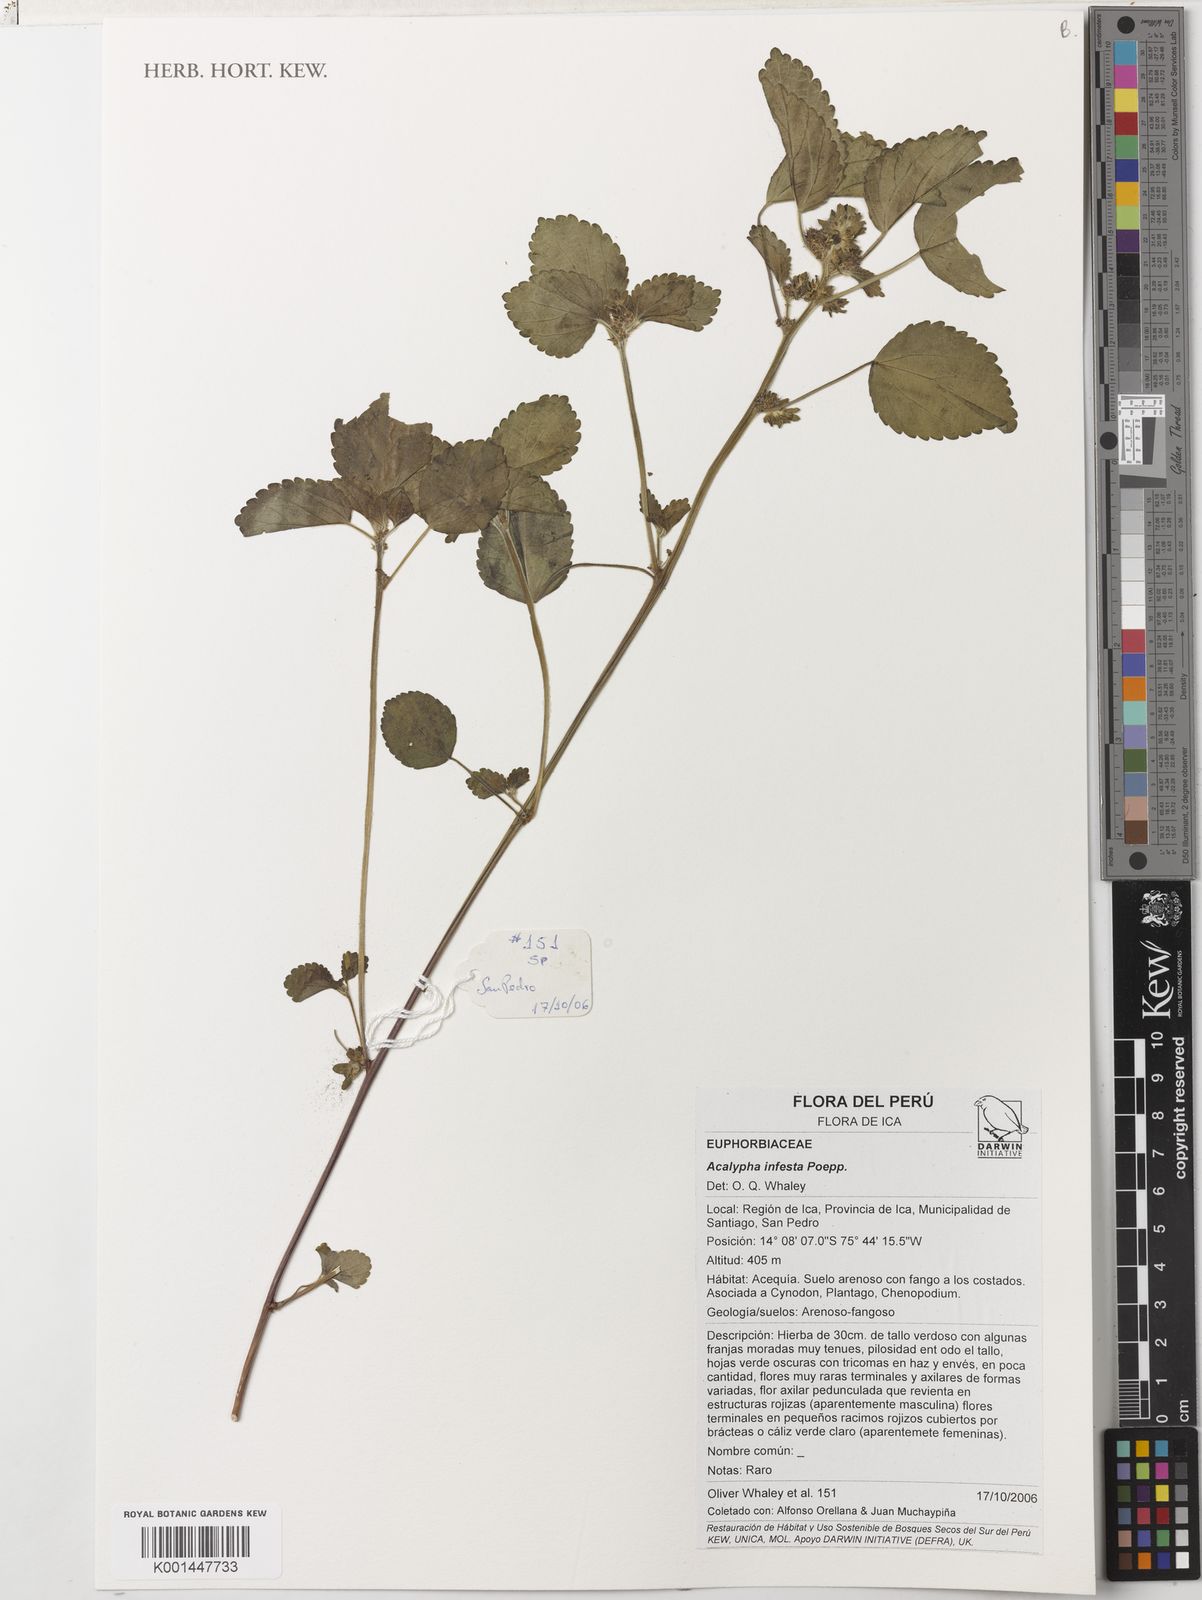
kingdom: Plantae
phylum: Tracheophyta
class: Magnoliopsida
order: Malpighiales
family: Euphorbiaceae
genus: Acalypha
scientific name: Acalypha infesta
